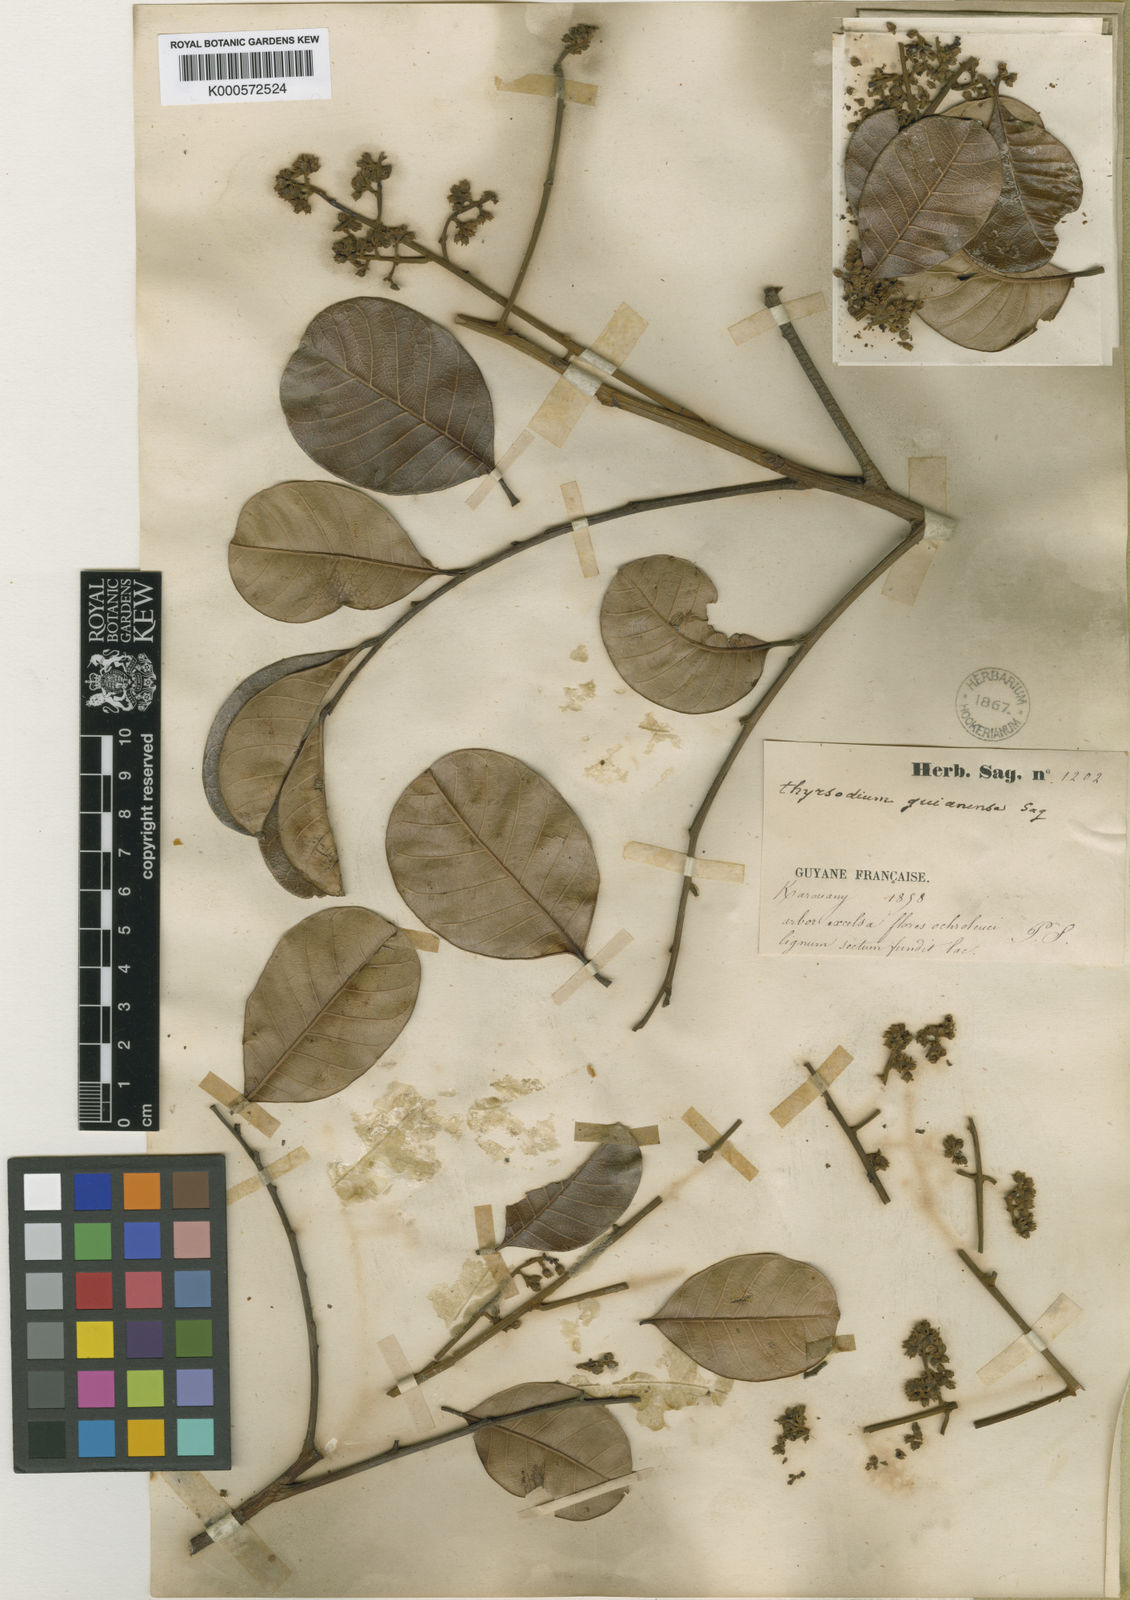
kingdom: Plantae
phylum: Tracheophyta
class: Magnoliopsida
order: Sapindales
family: Anacardiaceae
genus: Thyrsodium
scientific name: Thyrsodium guianense
